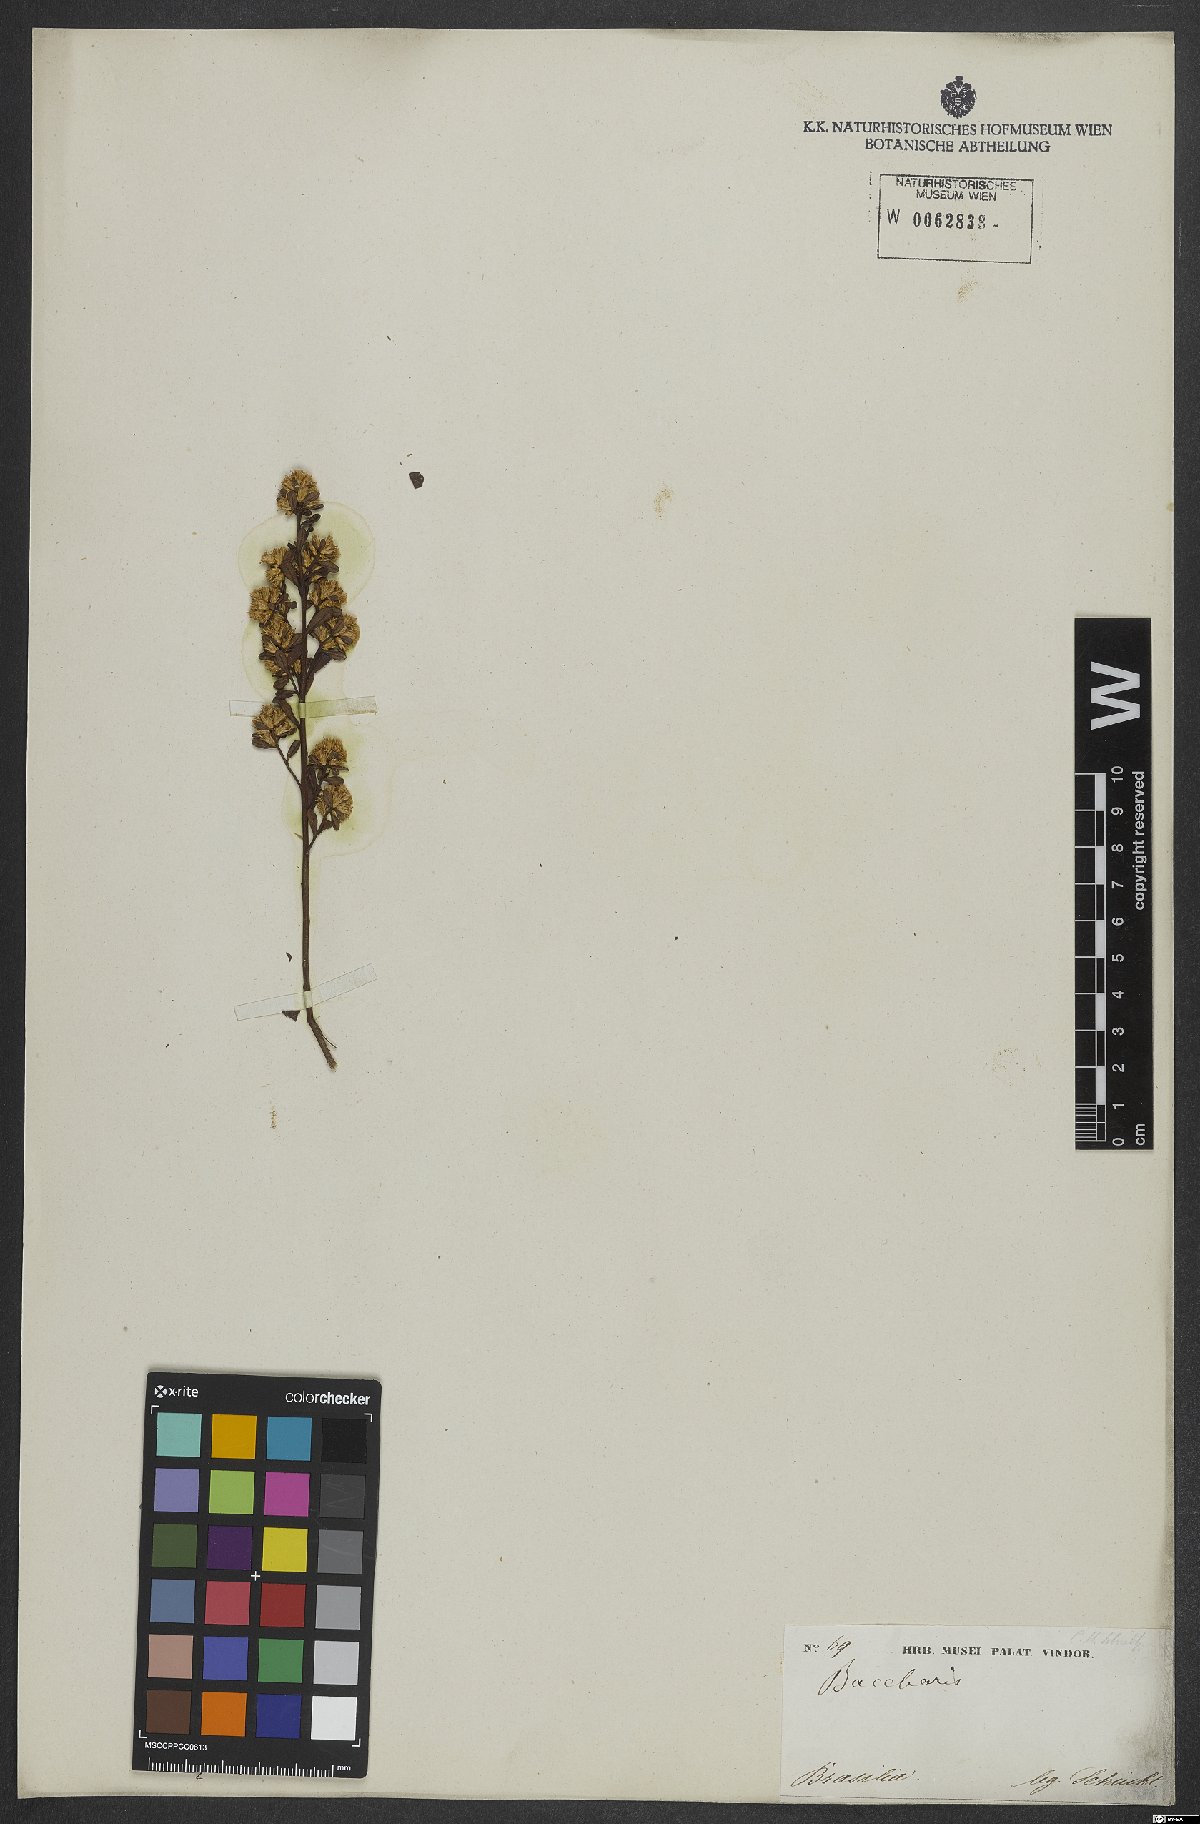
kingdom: Plantae
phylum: Tracheophyta
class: Magnoliopsida
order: Asterales
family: Asteraceae
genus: Baccharis
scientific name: Baccharis
